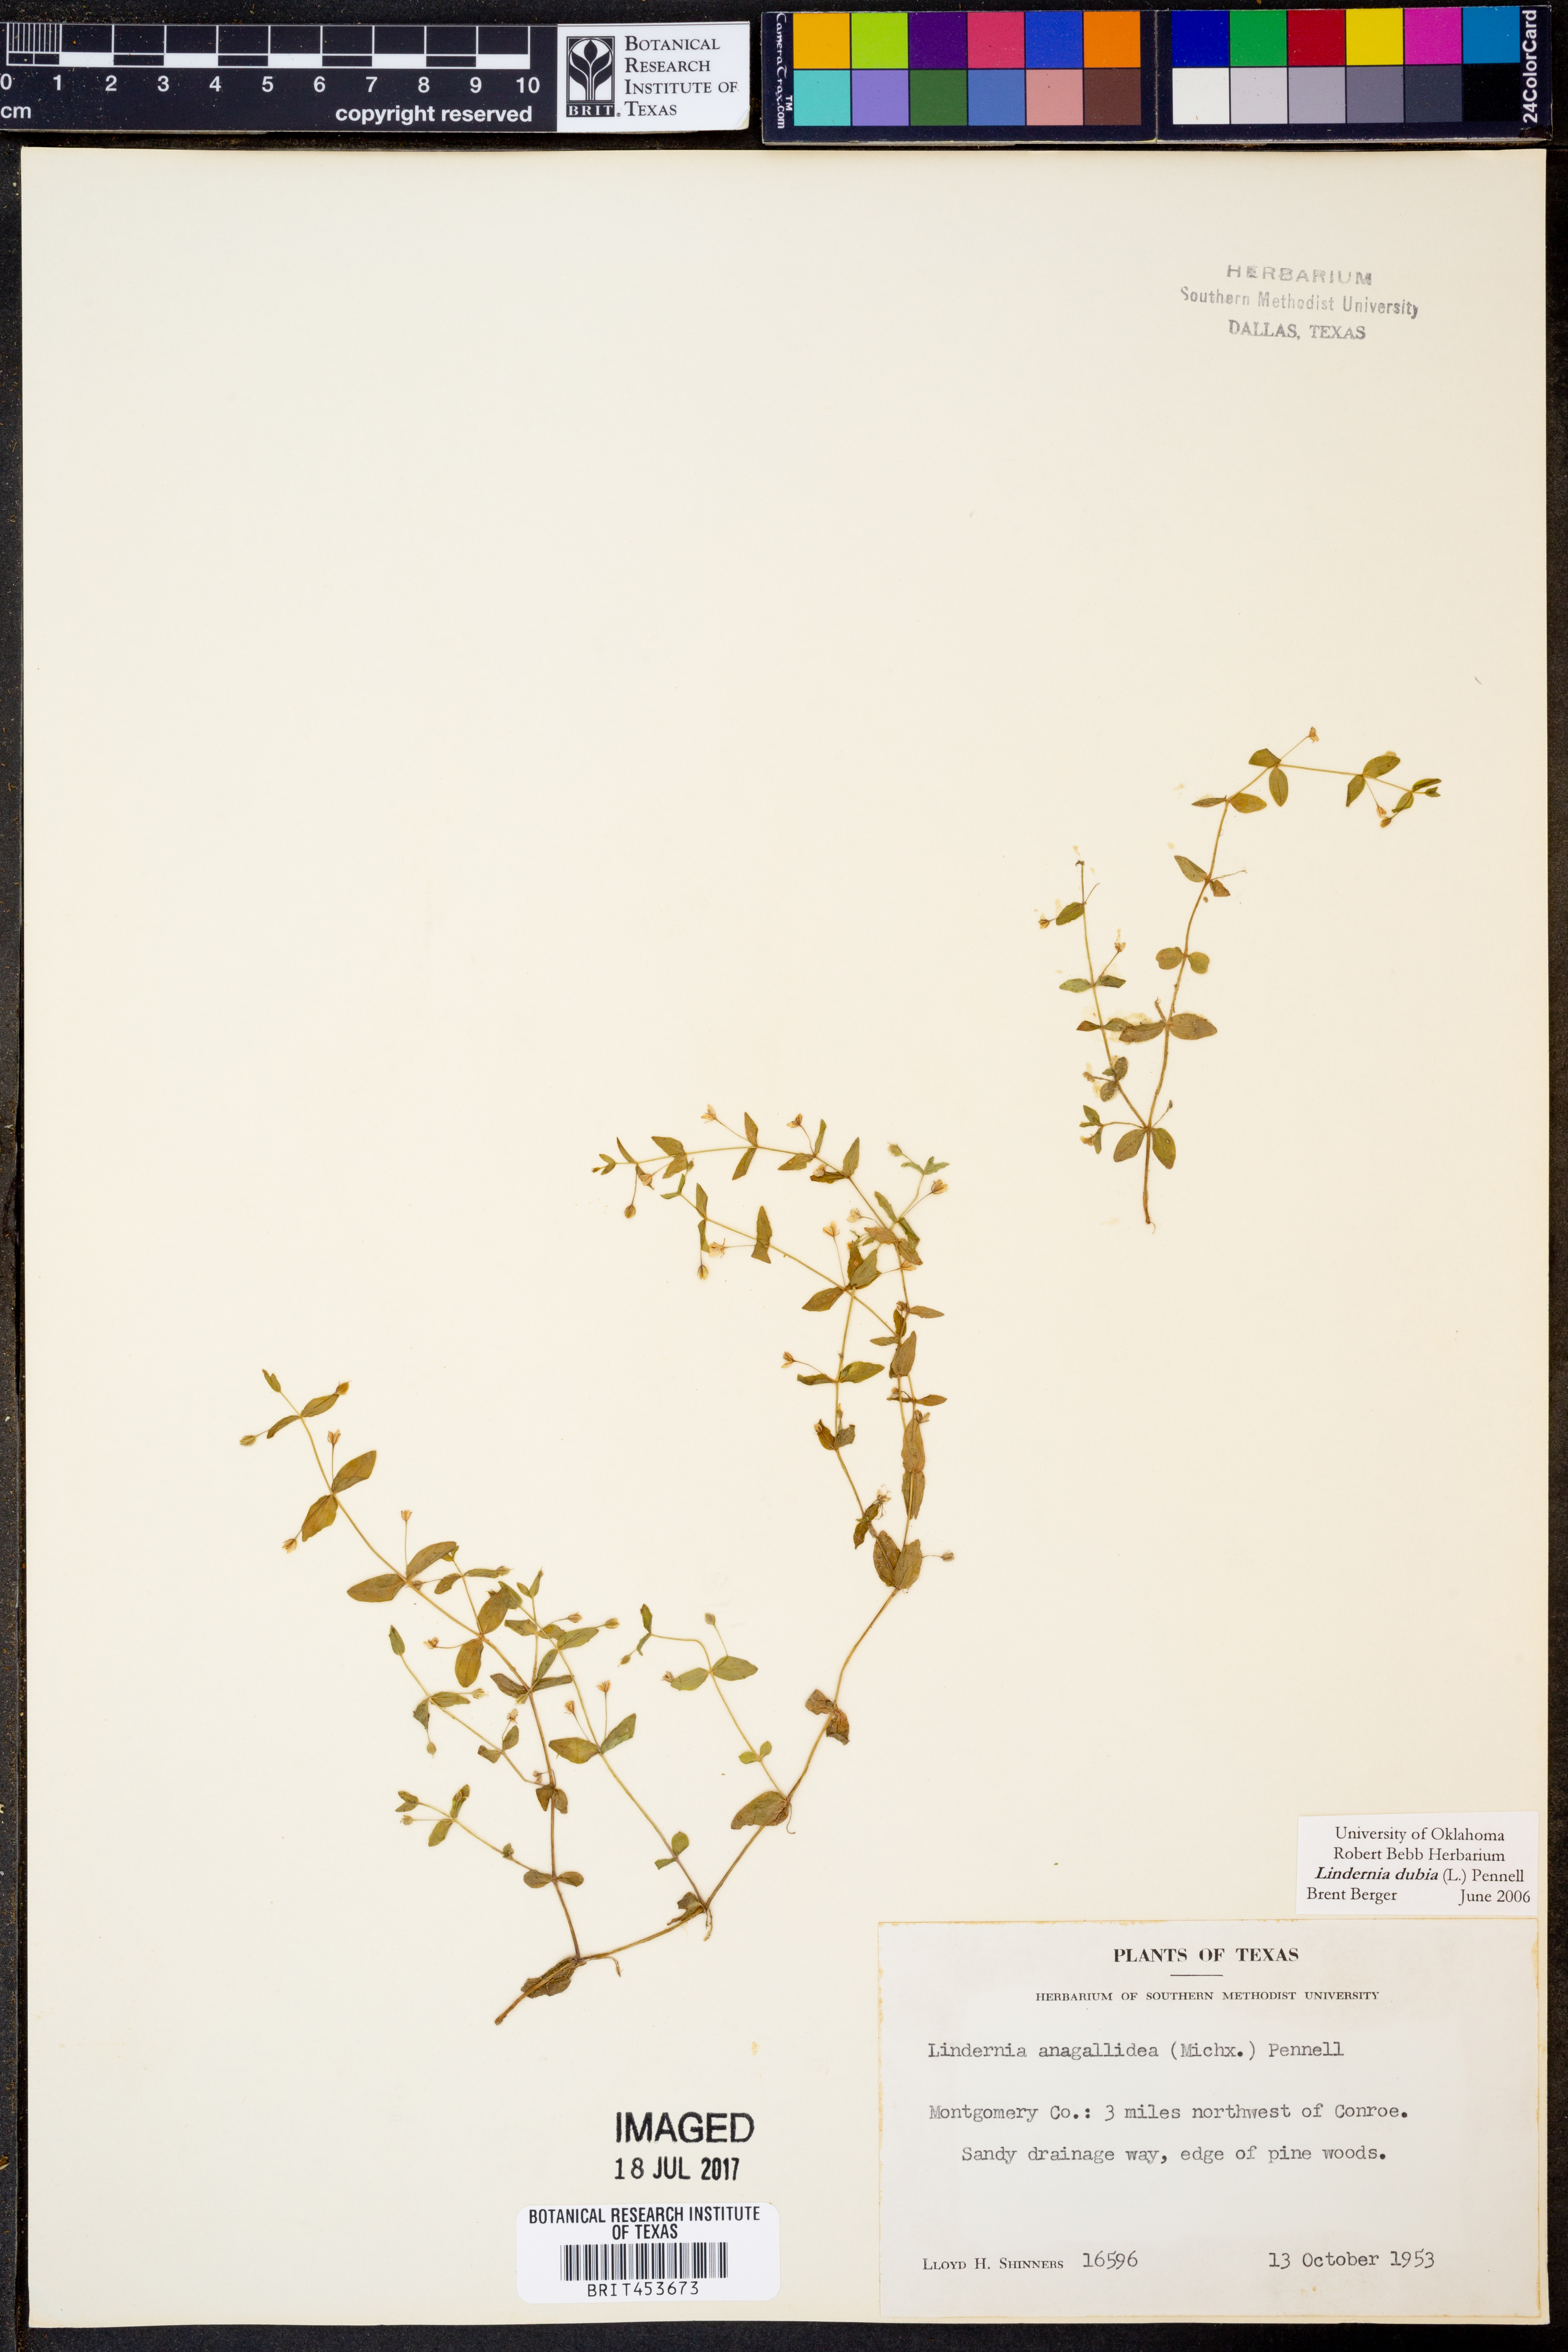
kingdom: Plantae
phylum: Tracheophyta
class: Magnoliopsida
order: Lamiales
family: Linderniaceae
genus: Lindernia
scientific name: Lindernia dubia
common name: Annual false pimpernel
